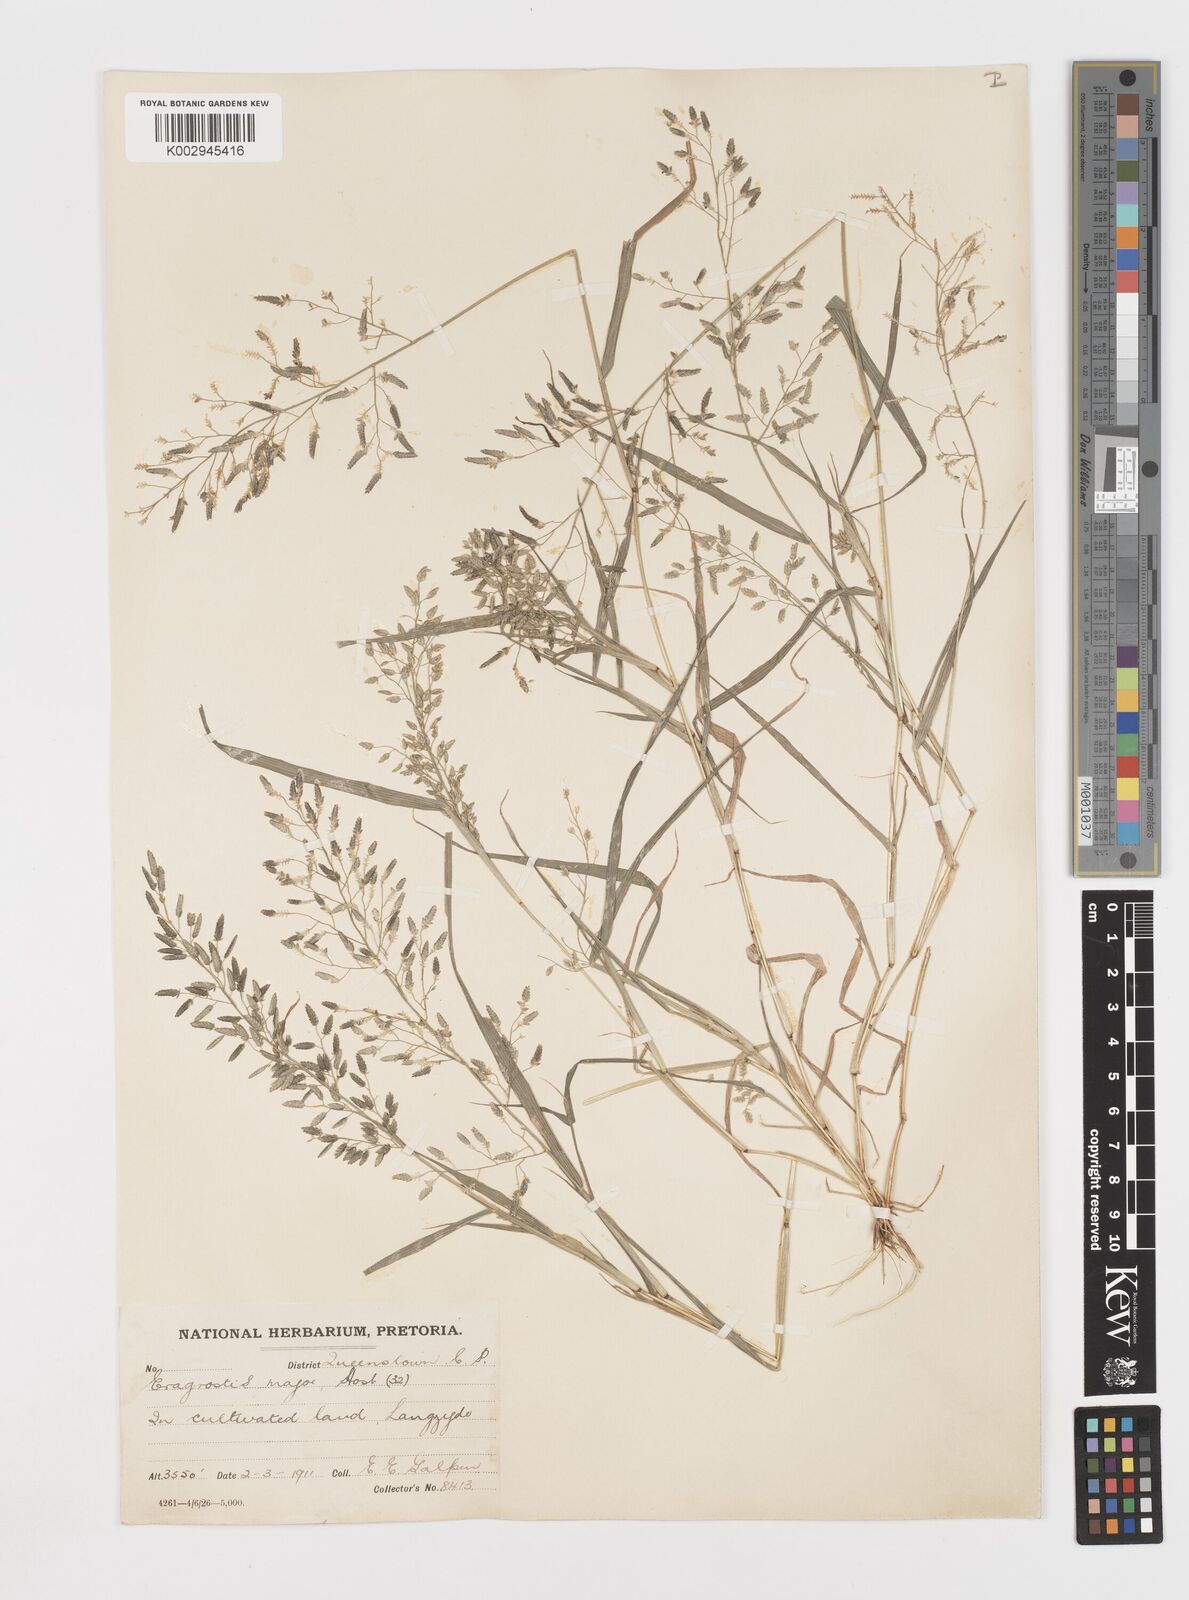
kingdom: Plantae
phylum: Tracheophyta
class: Liliopsida
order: Poales
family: Poaceae
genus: Eragrostis
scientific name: Eragrostis cilianensis
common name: Stinkgrass
